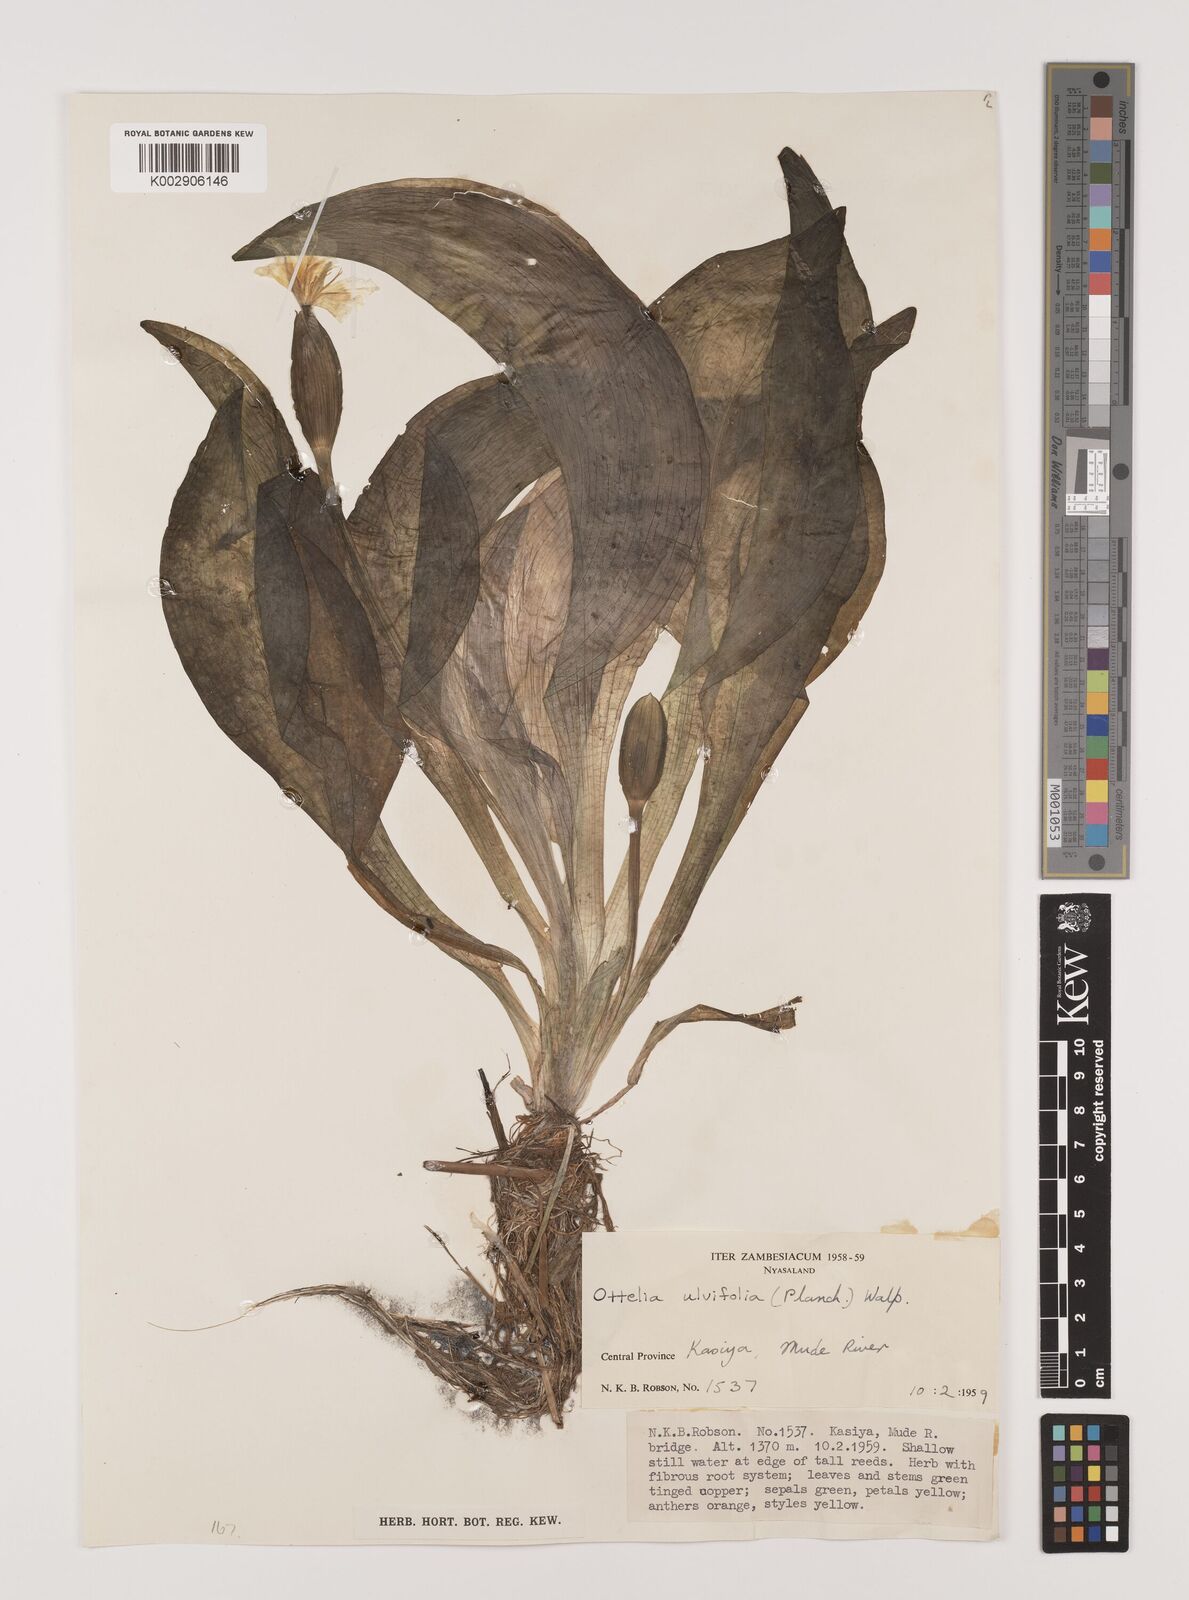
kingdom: Plantae
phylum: Tracheophyta
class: Liliopsida
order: Alismatales
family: Hydrocharitaceae
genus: Ottelia
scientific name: Ottelia ulvifolia
